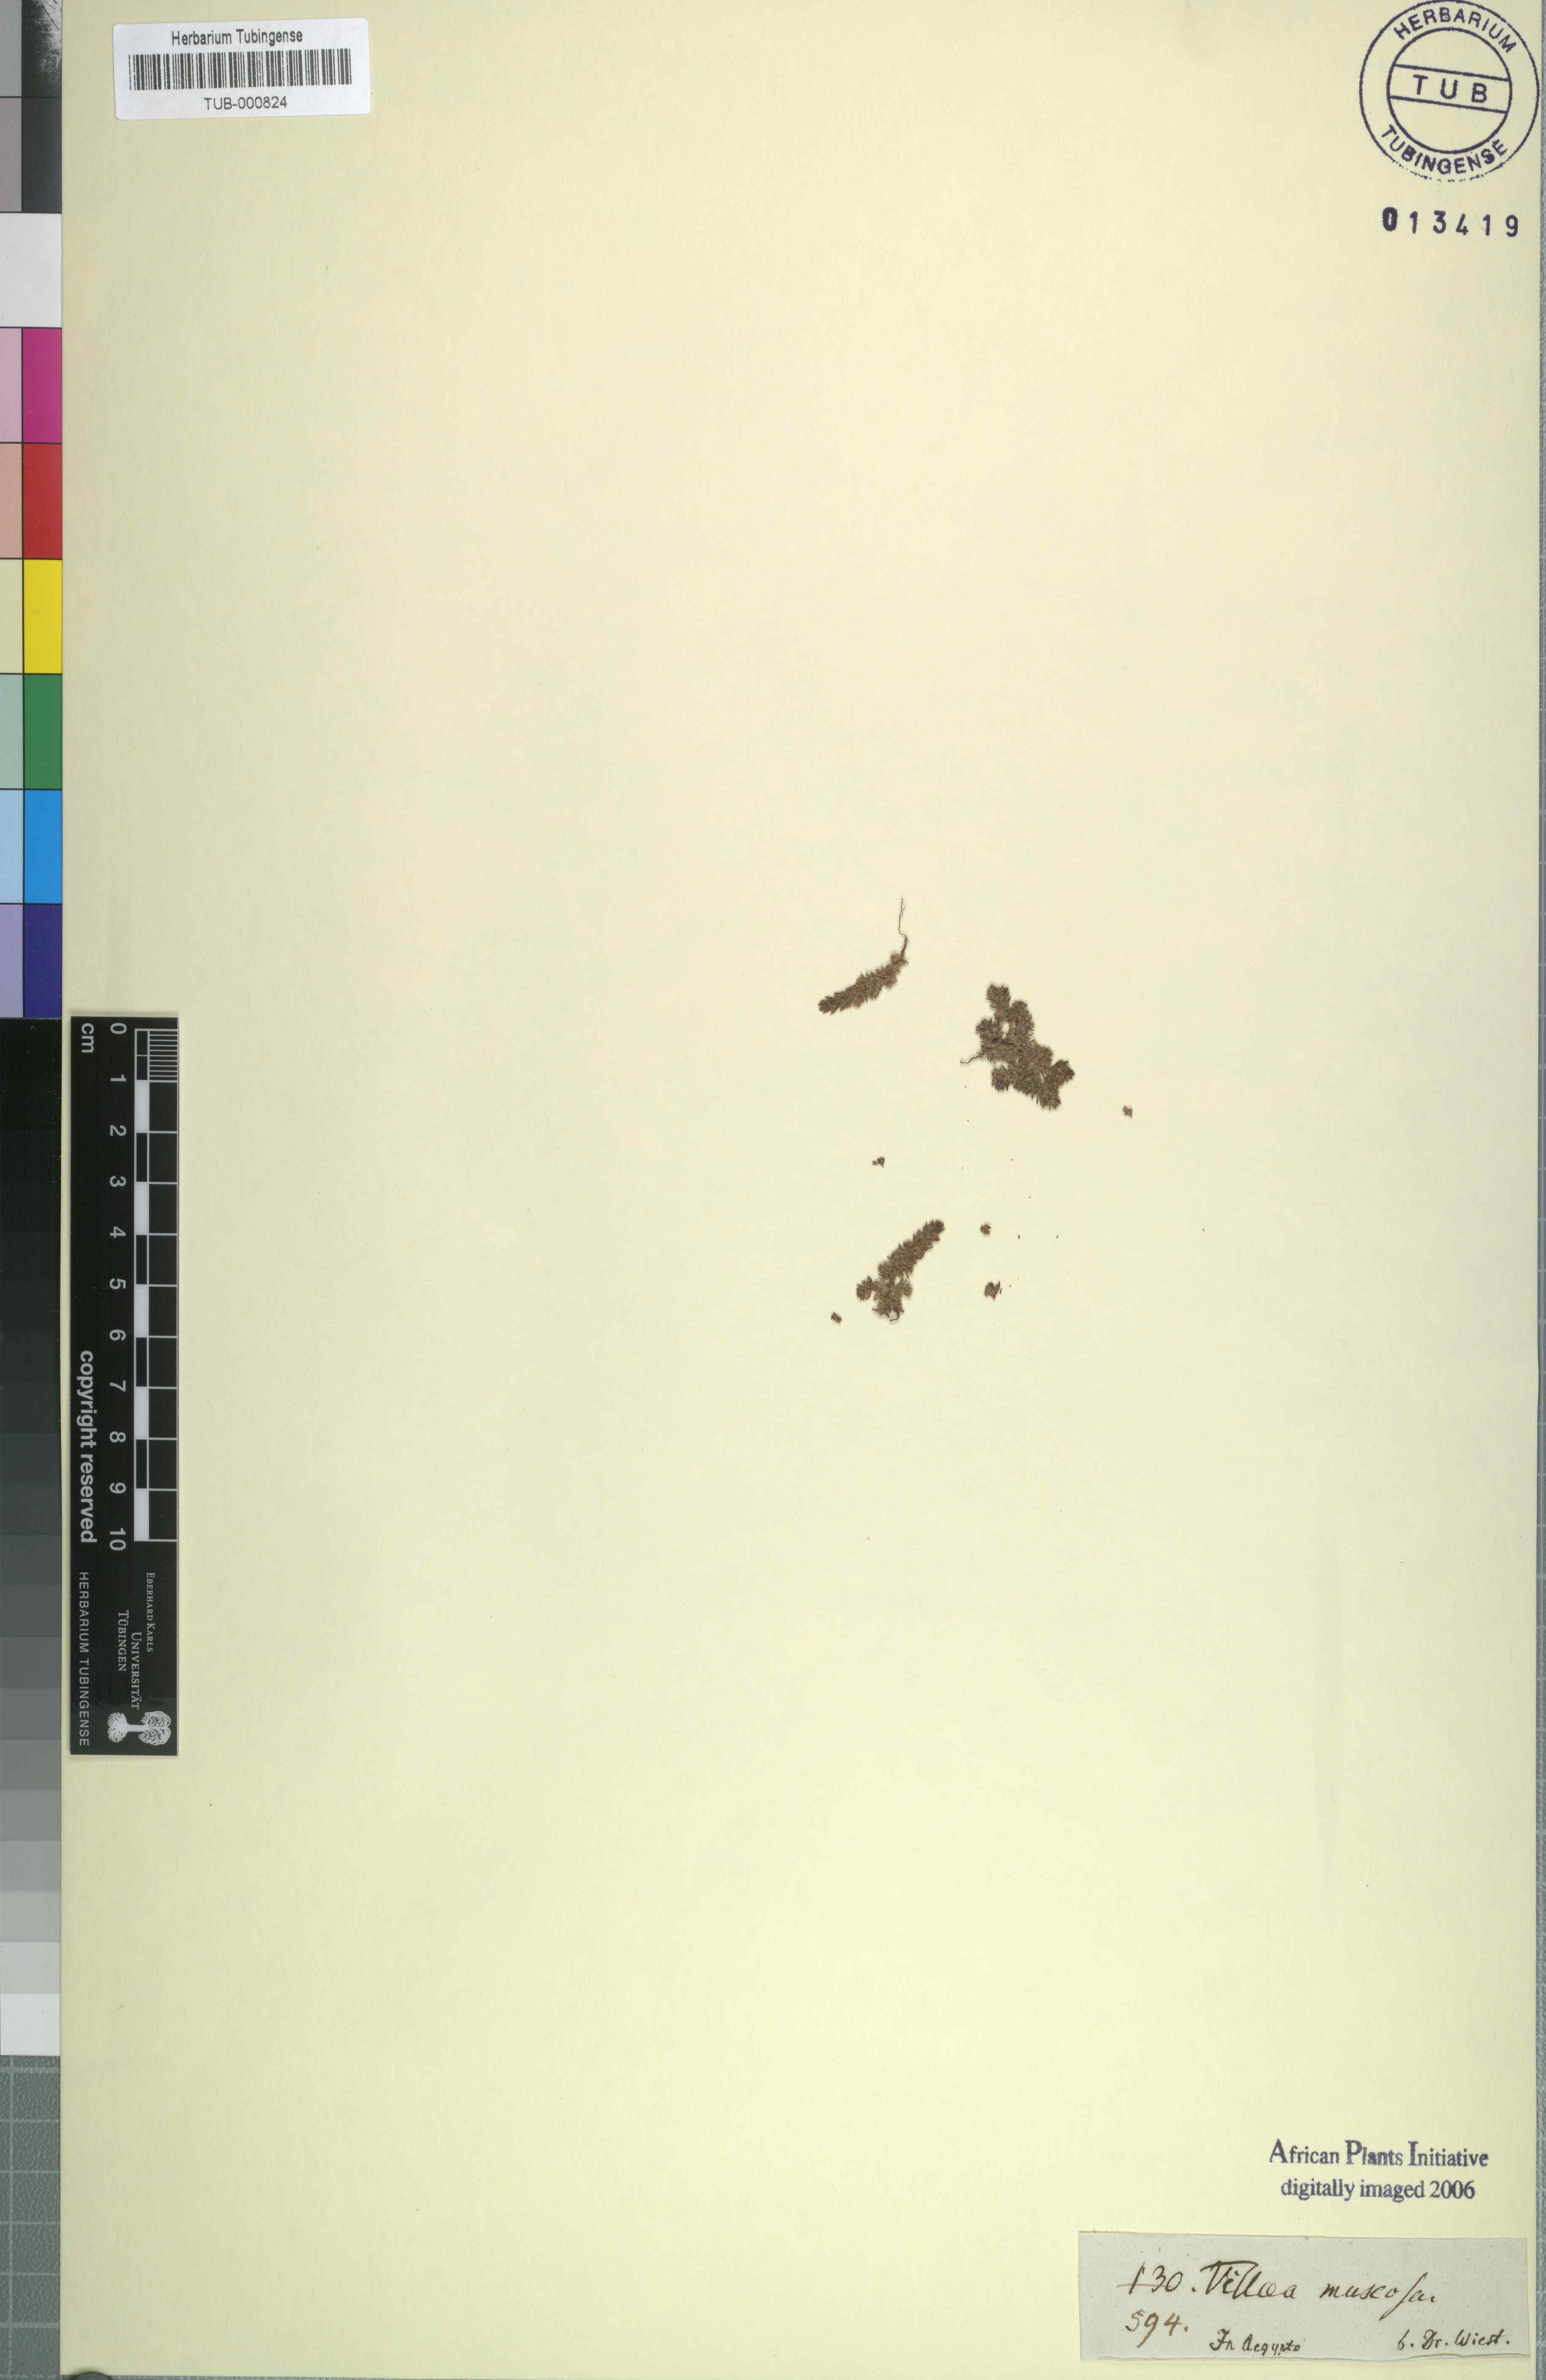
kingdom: Plantae
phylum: Tracheophyta
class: Magnoliopsida
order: Saxifragales
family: Crassulaceae
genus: Crassula
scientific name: Crassula tillaea
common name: Mossy stonecrop
